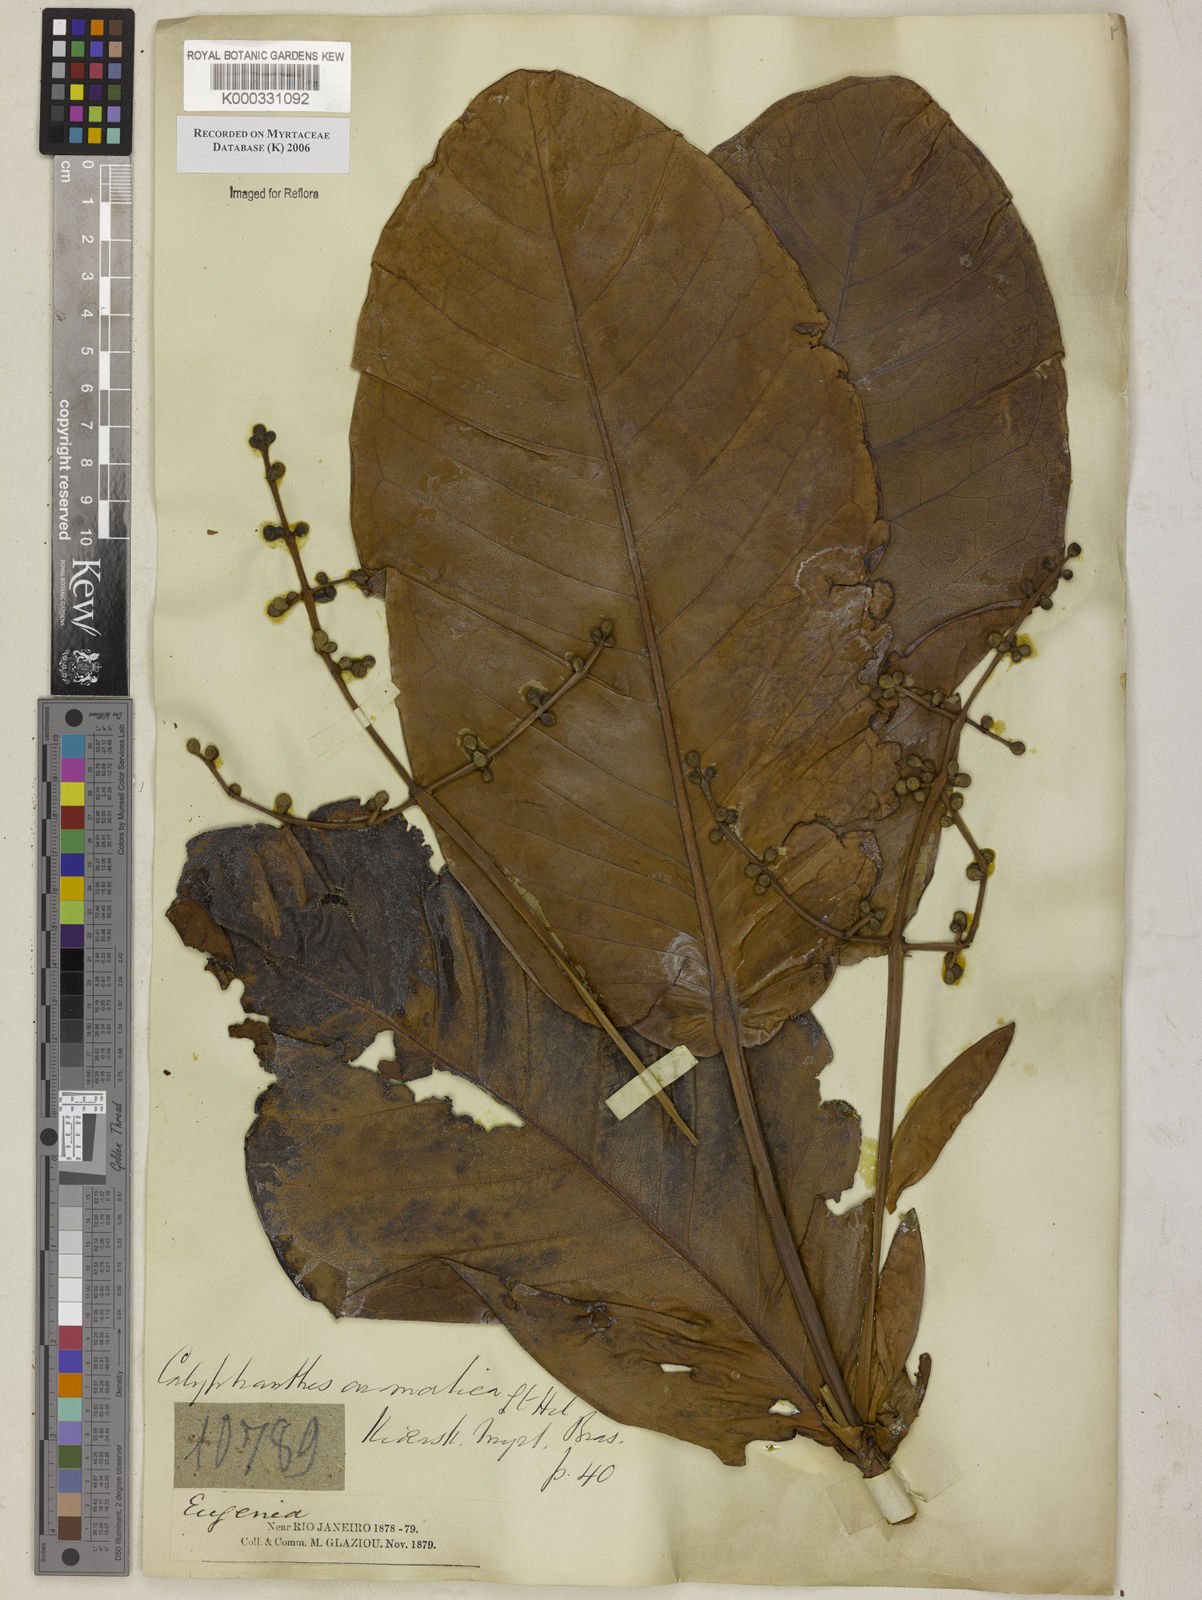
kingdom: Plantae
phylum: Tracheophyta
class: Magnoliopsida
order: Myrtales
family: Myrtaceae
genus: Myrcia
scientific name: Myrcia carioca
